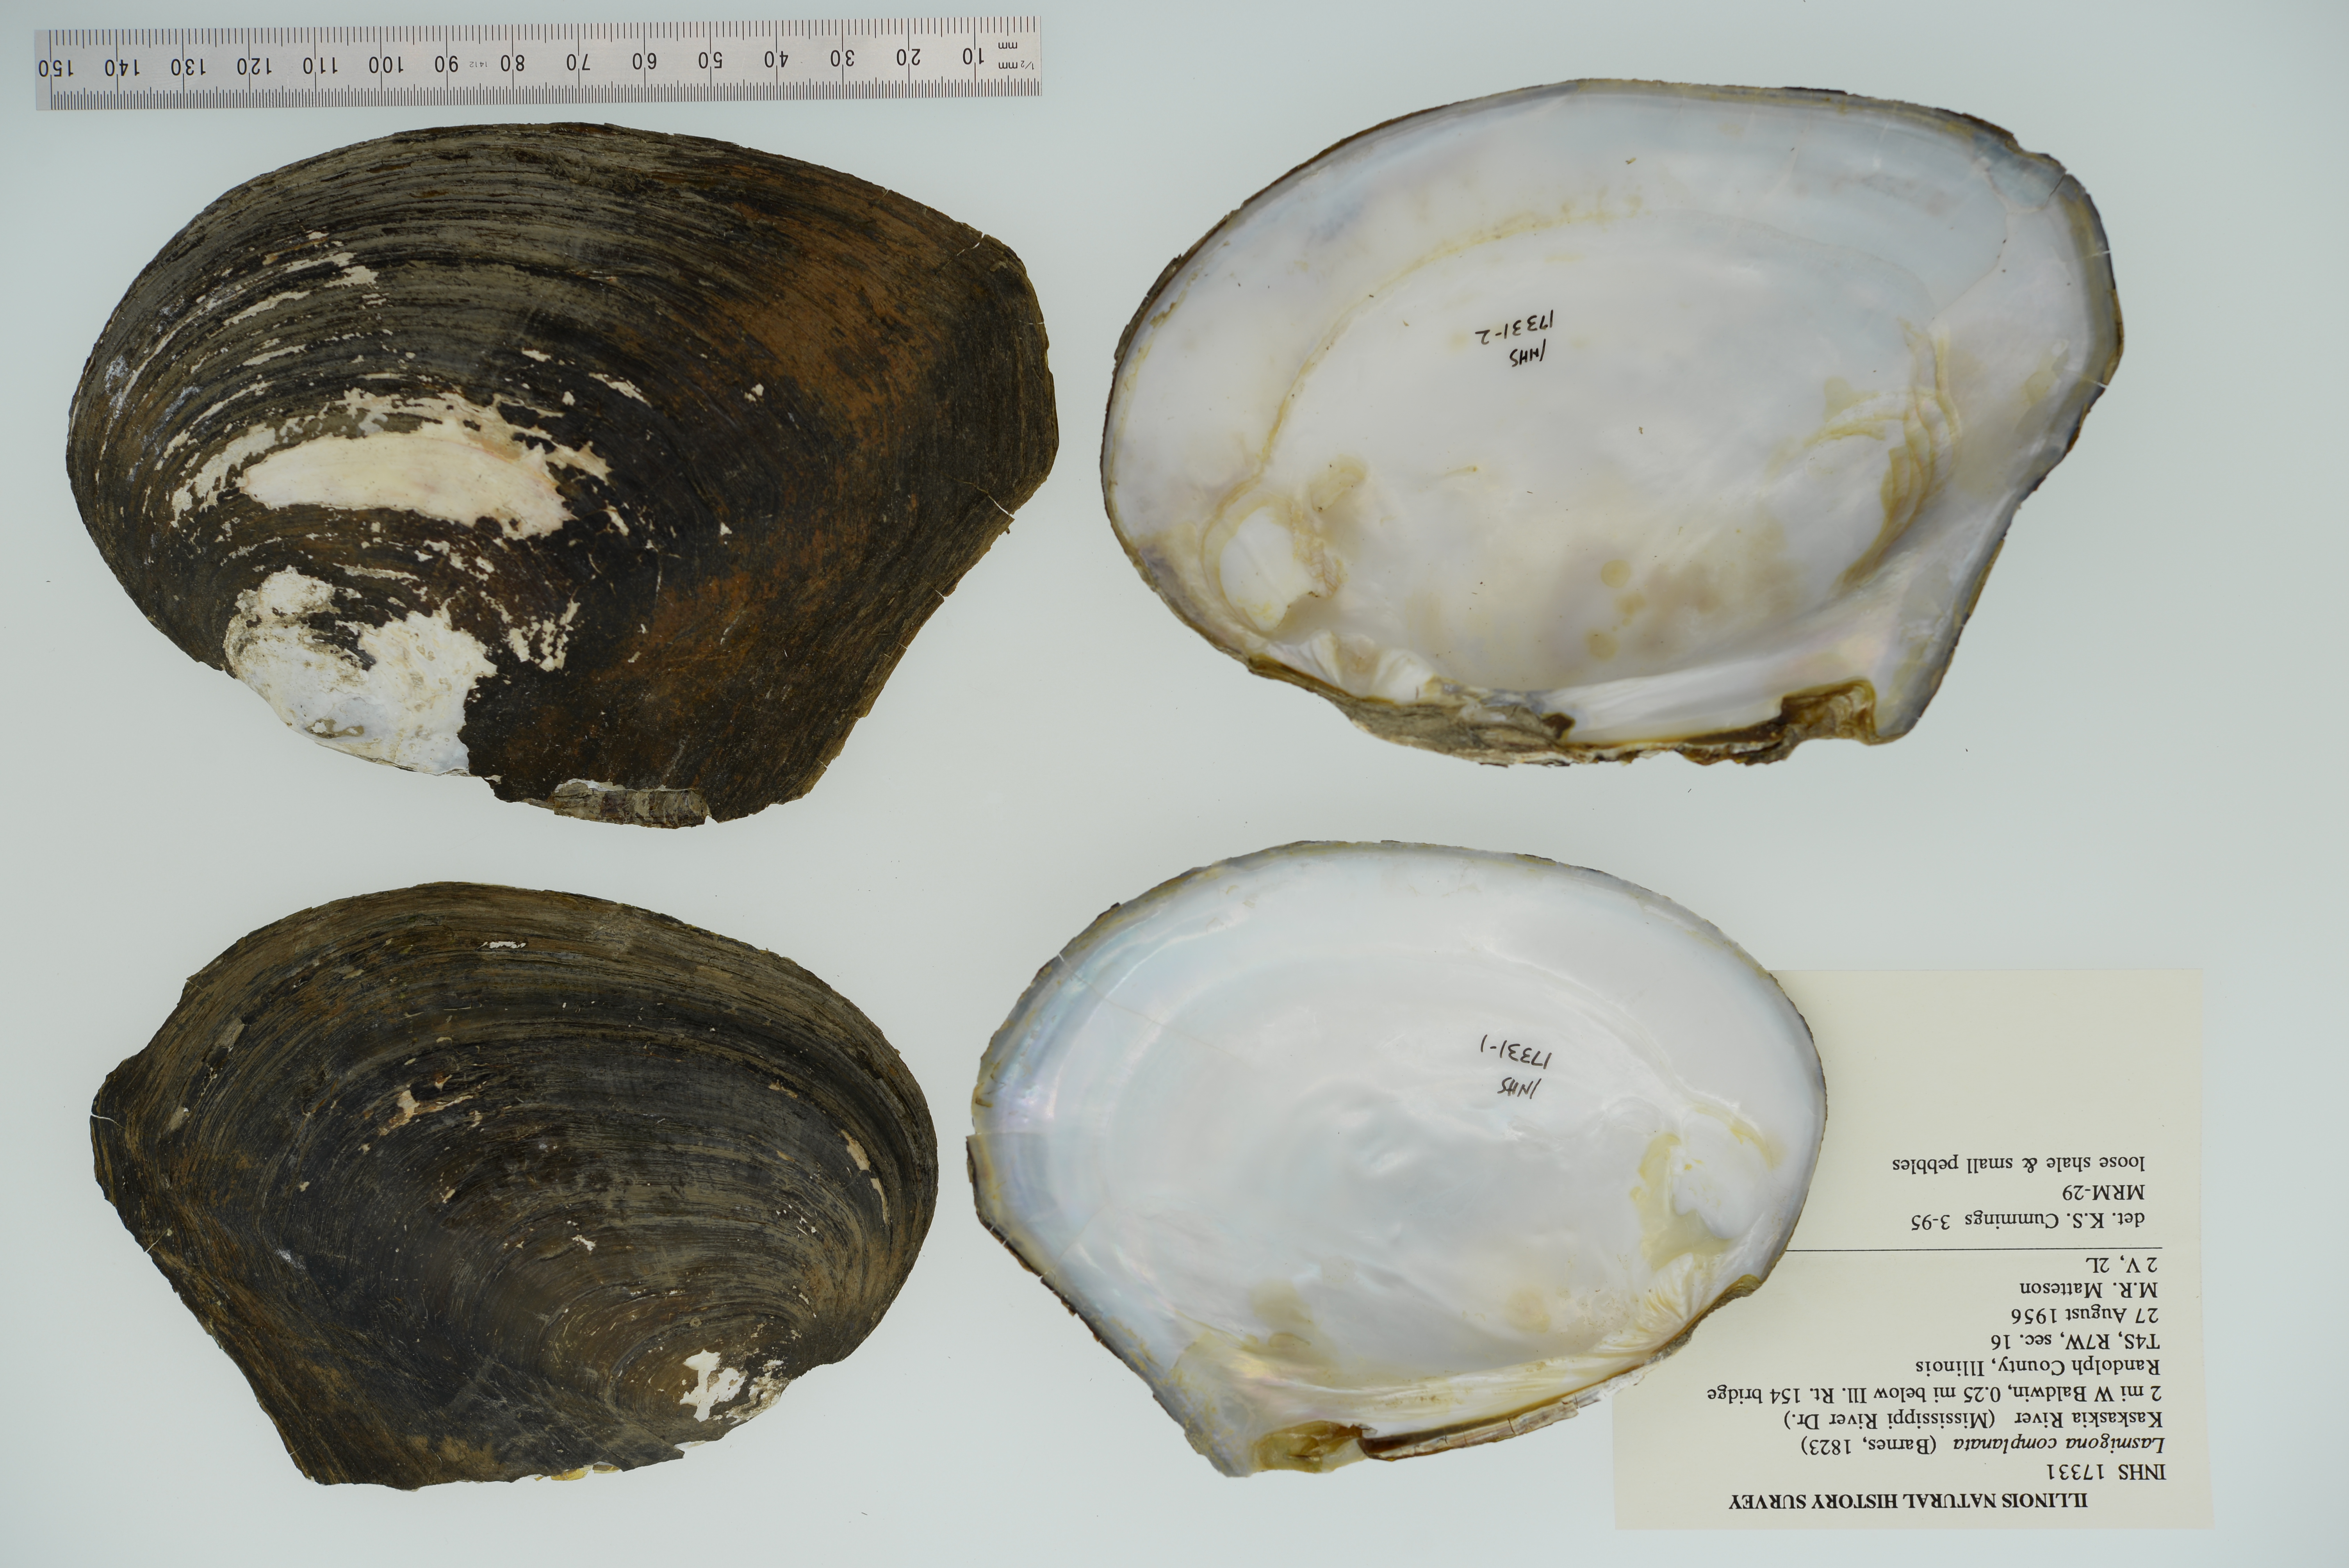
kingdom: Animalia
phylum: Mollusca
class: Bivalvia
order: Unionida
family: Unionidae
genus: Lasmigona
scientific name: Lasmigona complanata
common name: White heelsplitter
